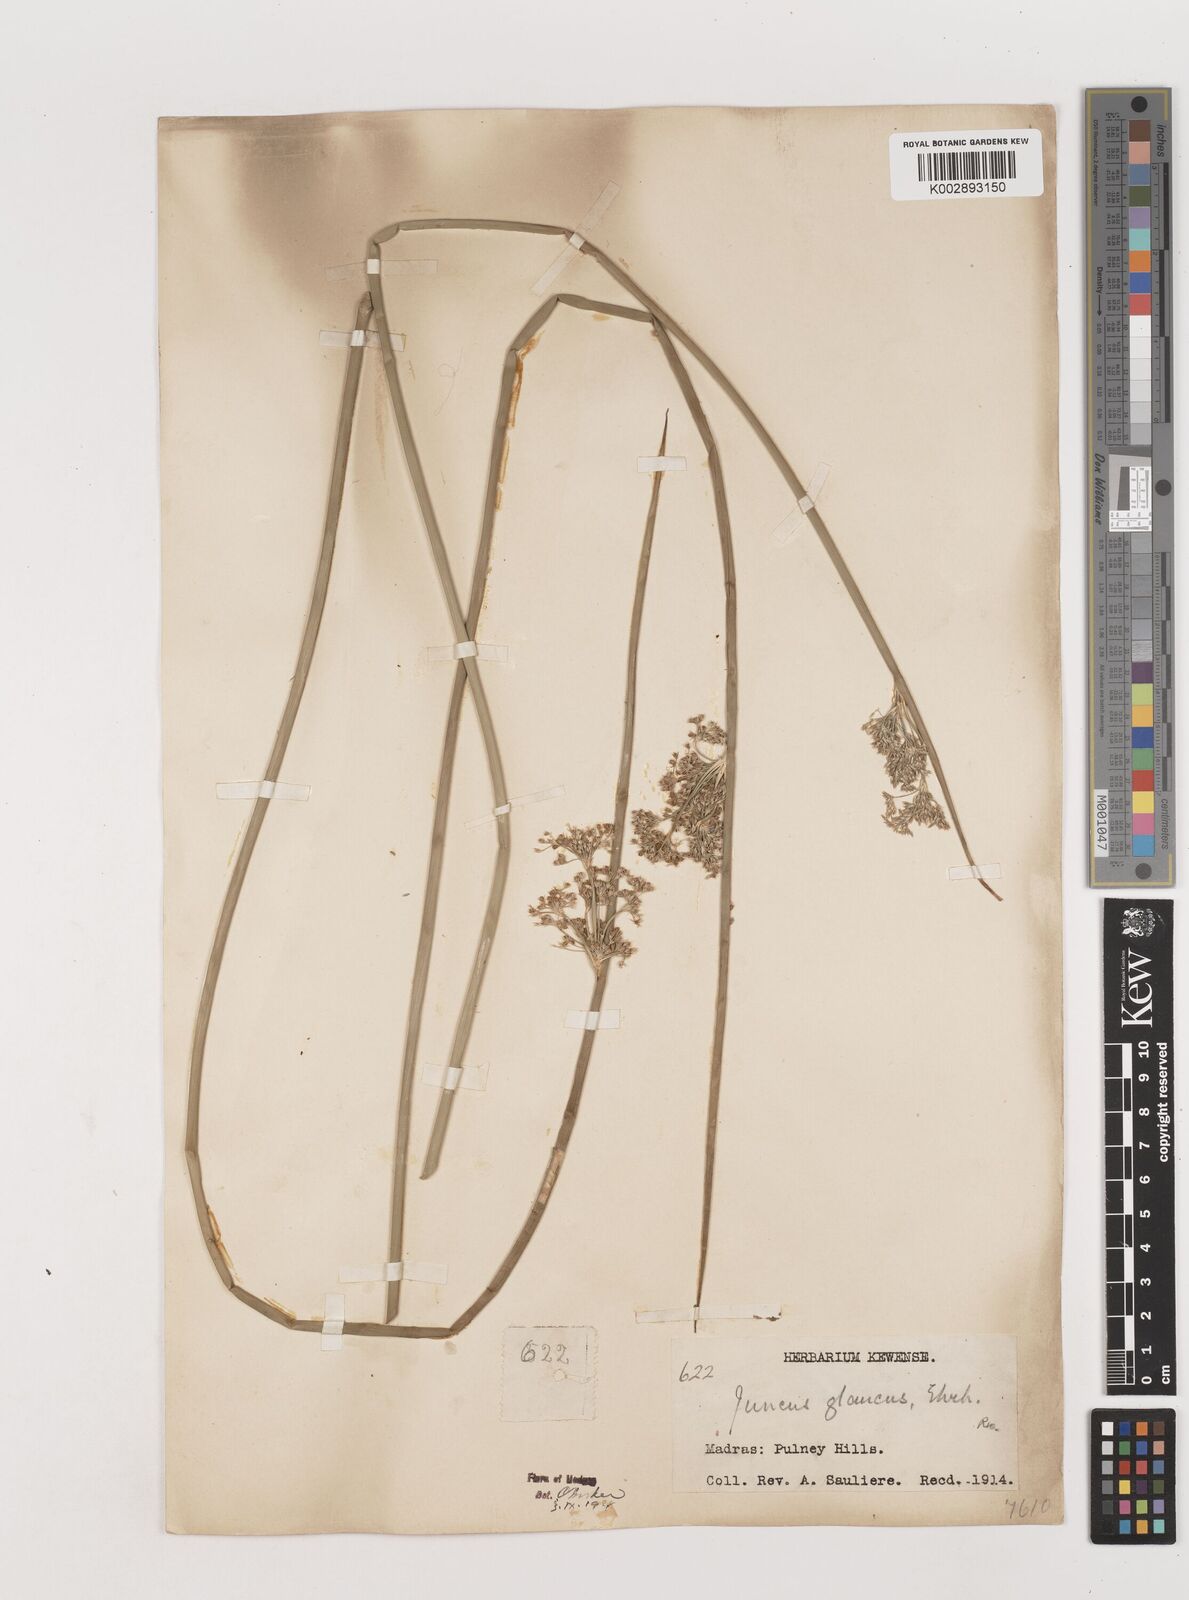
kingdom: Plantae
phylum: Tracheophyta
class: Liliopsida
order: Poales
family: Juncaceae
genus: Juncus
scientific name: Juncus effusus
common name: Soft rush
